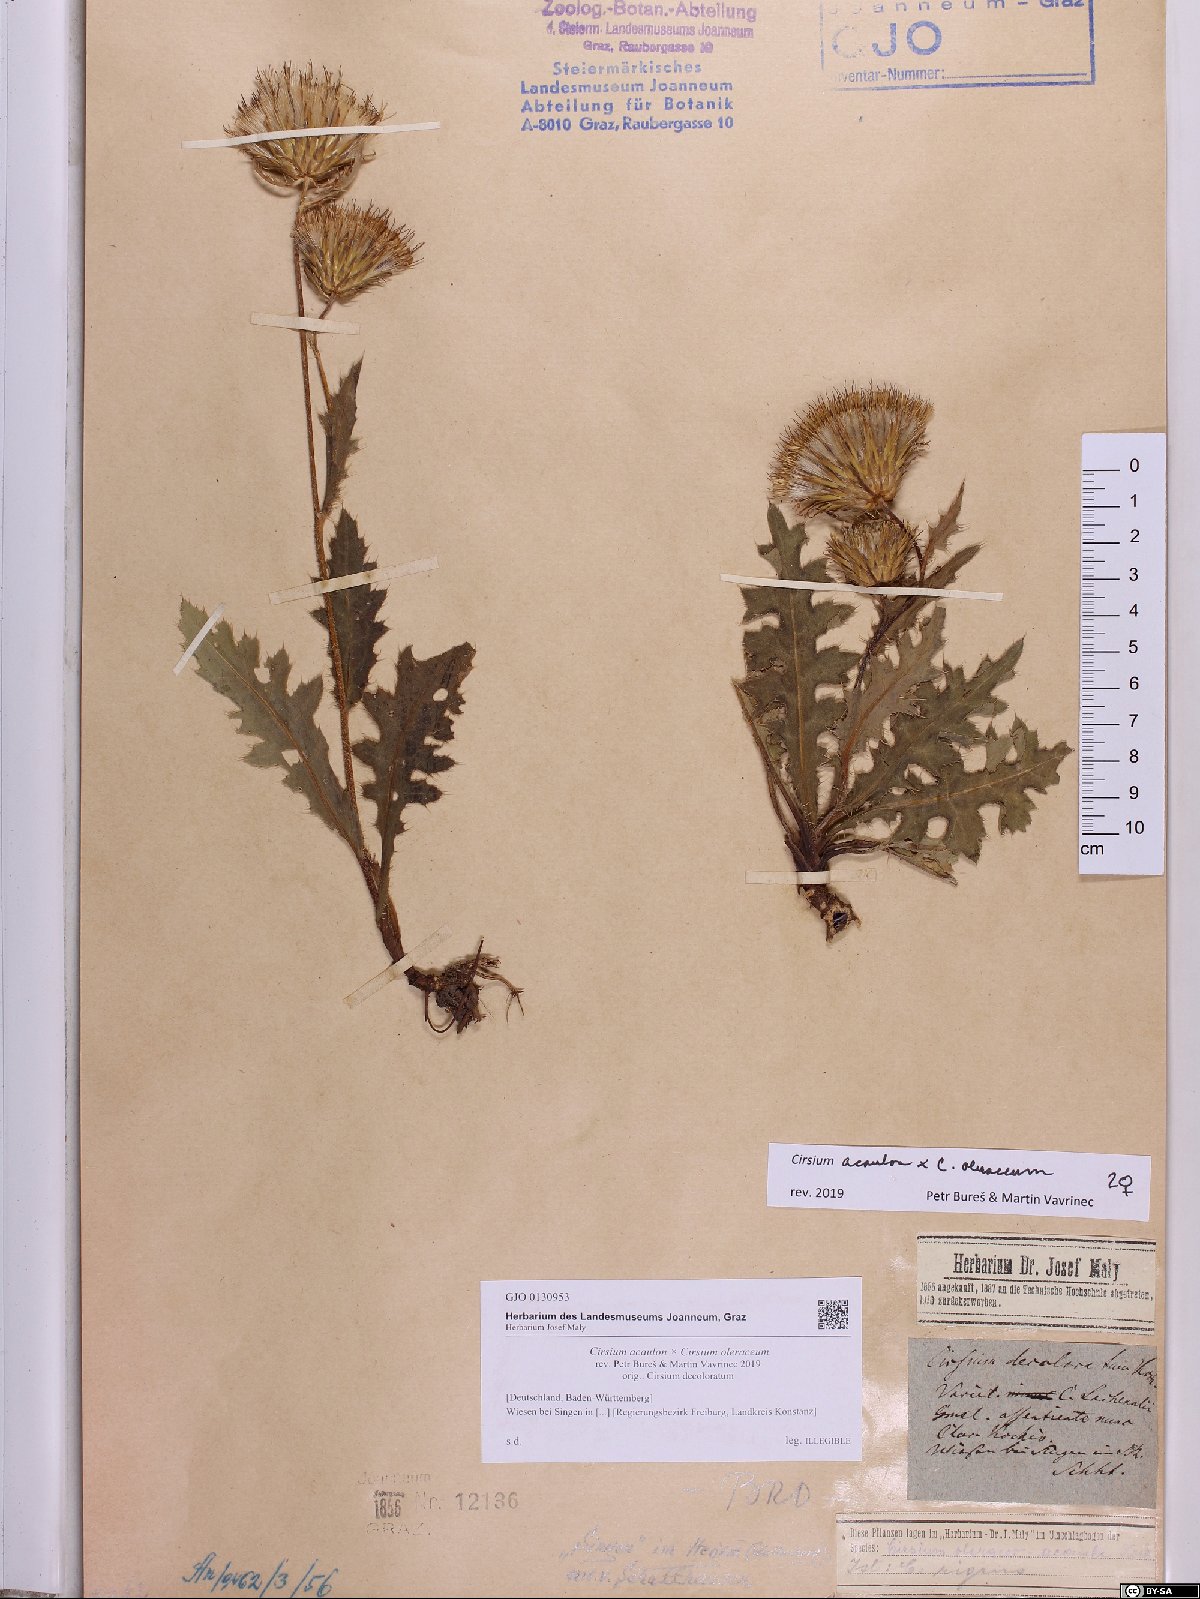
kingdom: Plantae
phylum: Tracheophyta
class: Magnoliopsida
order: Asterales
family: Asteraceae
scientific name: Asteraceae
